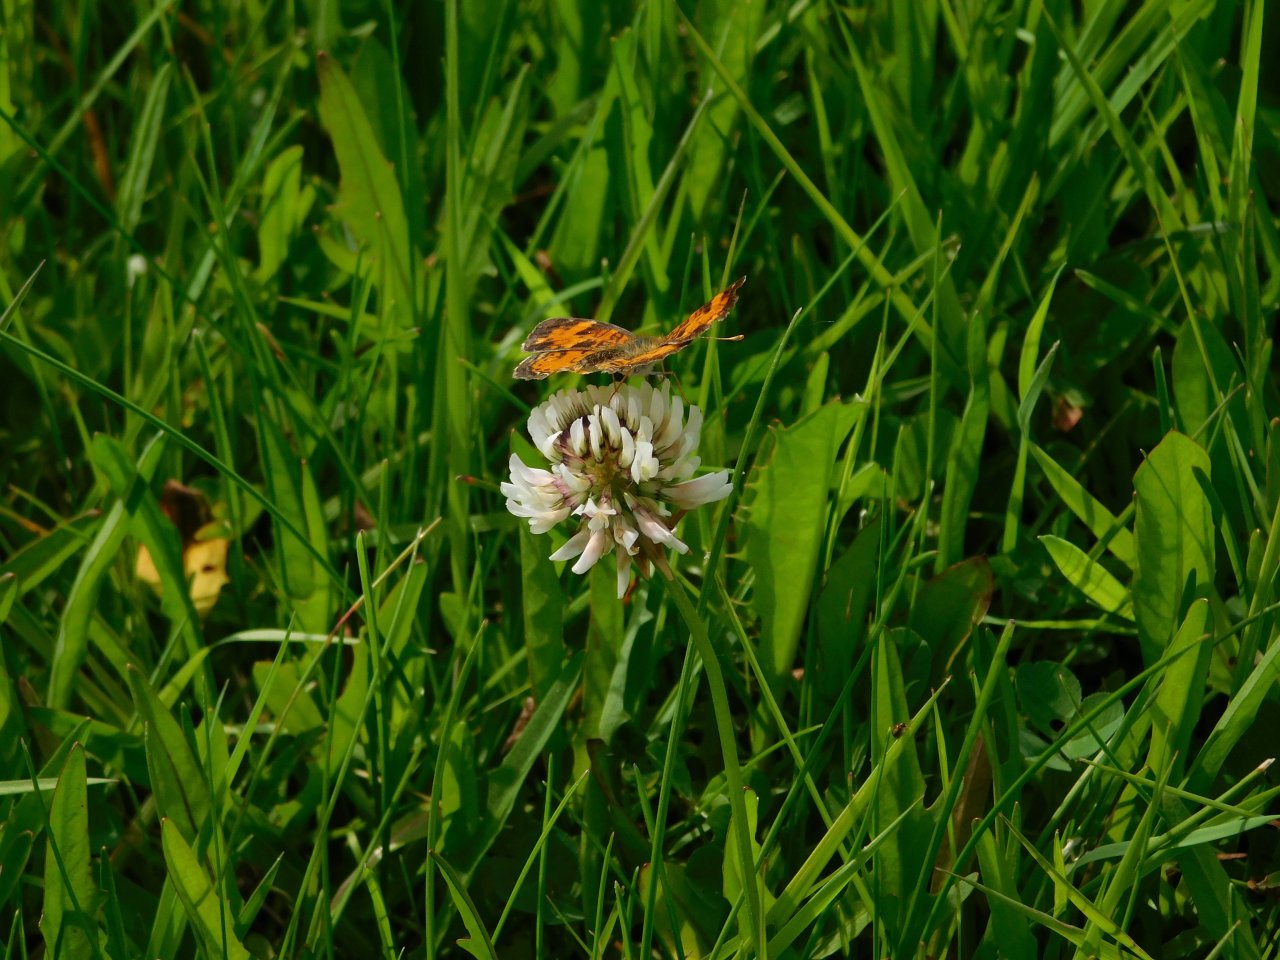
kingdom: Animalia
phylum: Arthropoda
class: Insecta
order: Lepidoptera
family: Nymphalidae
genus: Phyciodes
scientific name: Phyciodes tharos
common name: Northern Crescent
